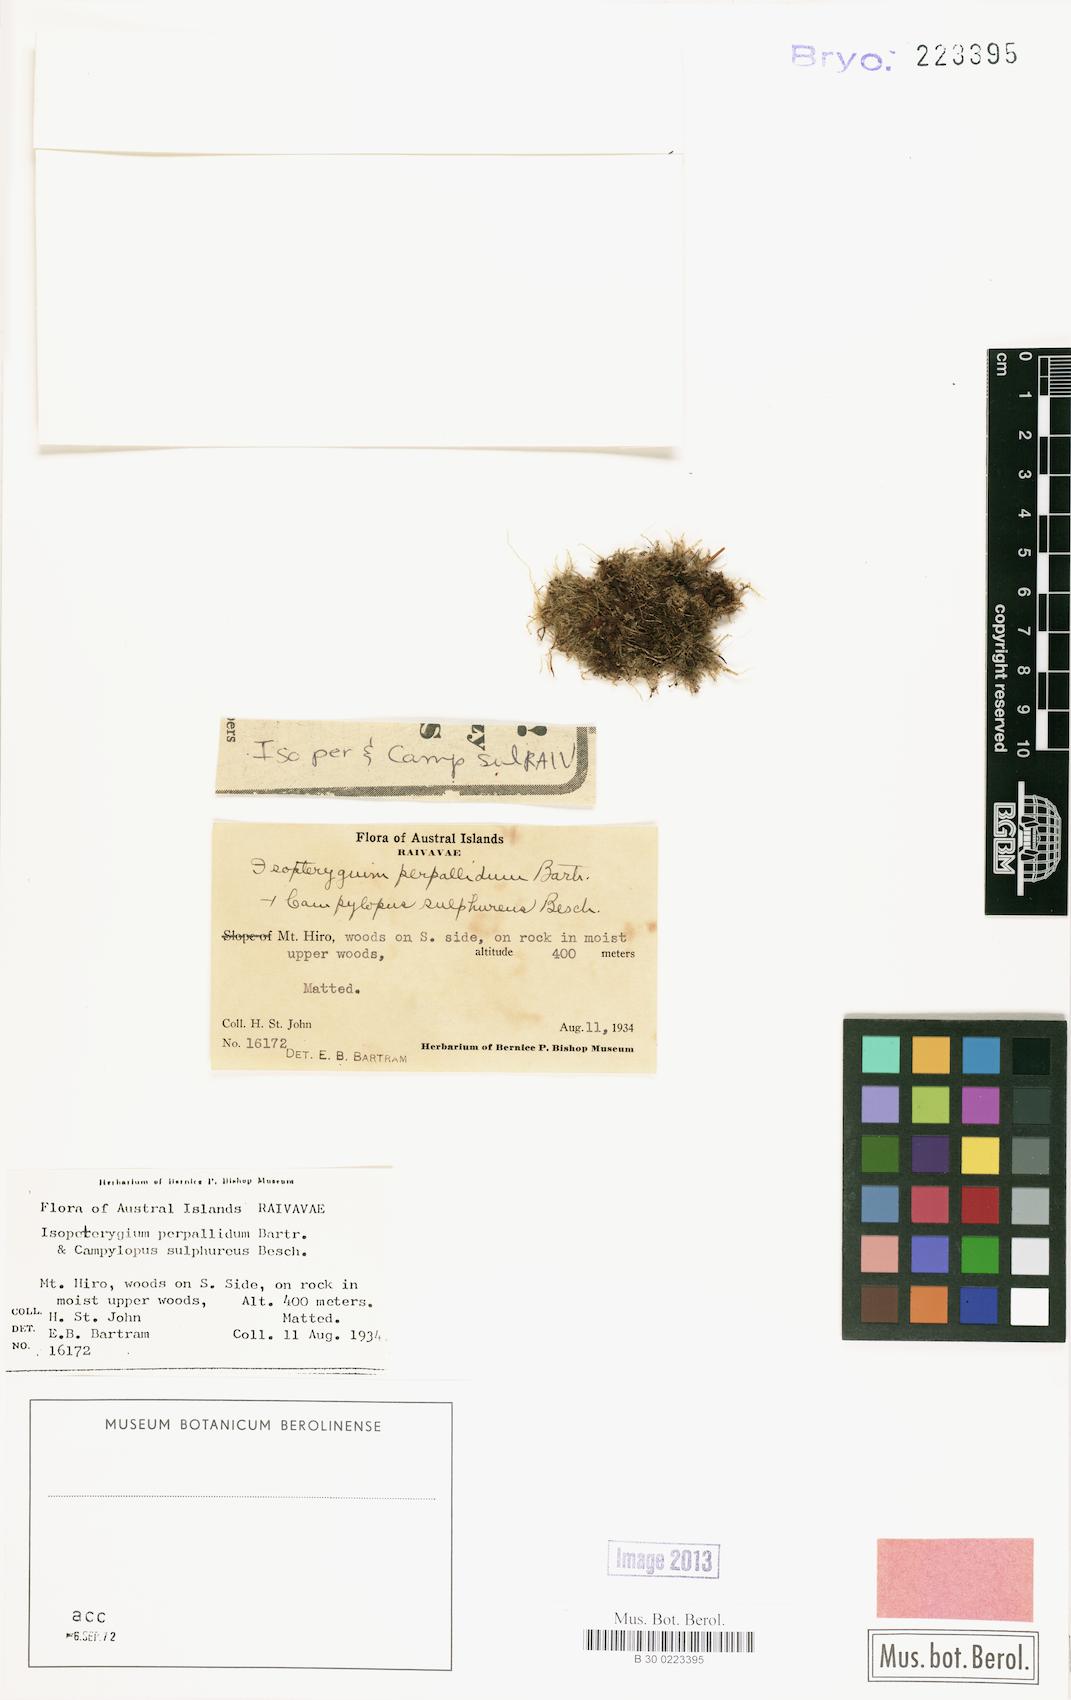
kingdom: Plantae
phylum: Bryophyta
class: Bryopsida
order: Hypnales
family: Pylaisiadelphaceae
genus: Isopterygium
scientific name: Isopterygium perpallidum
